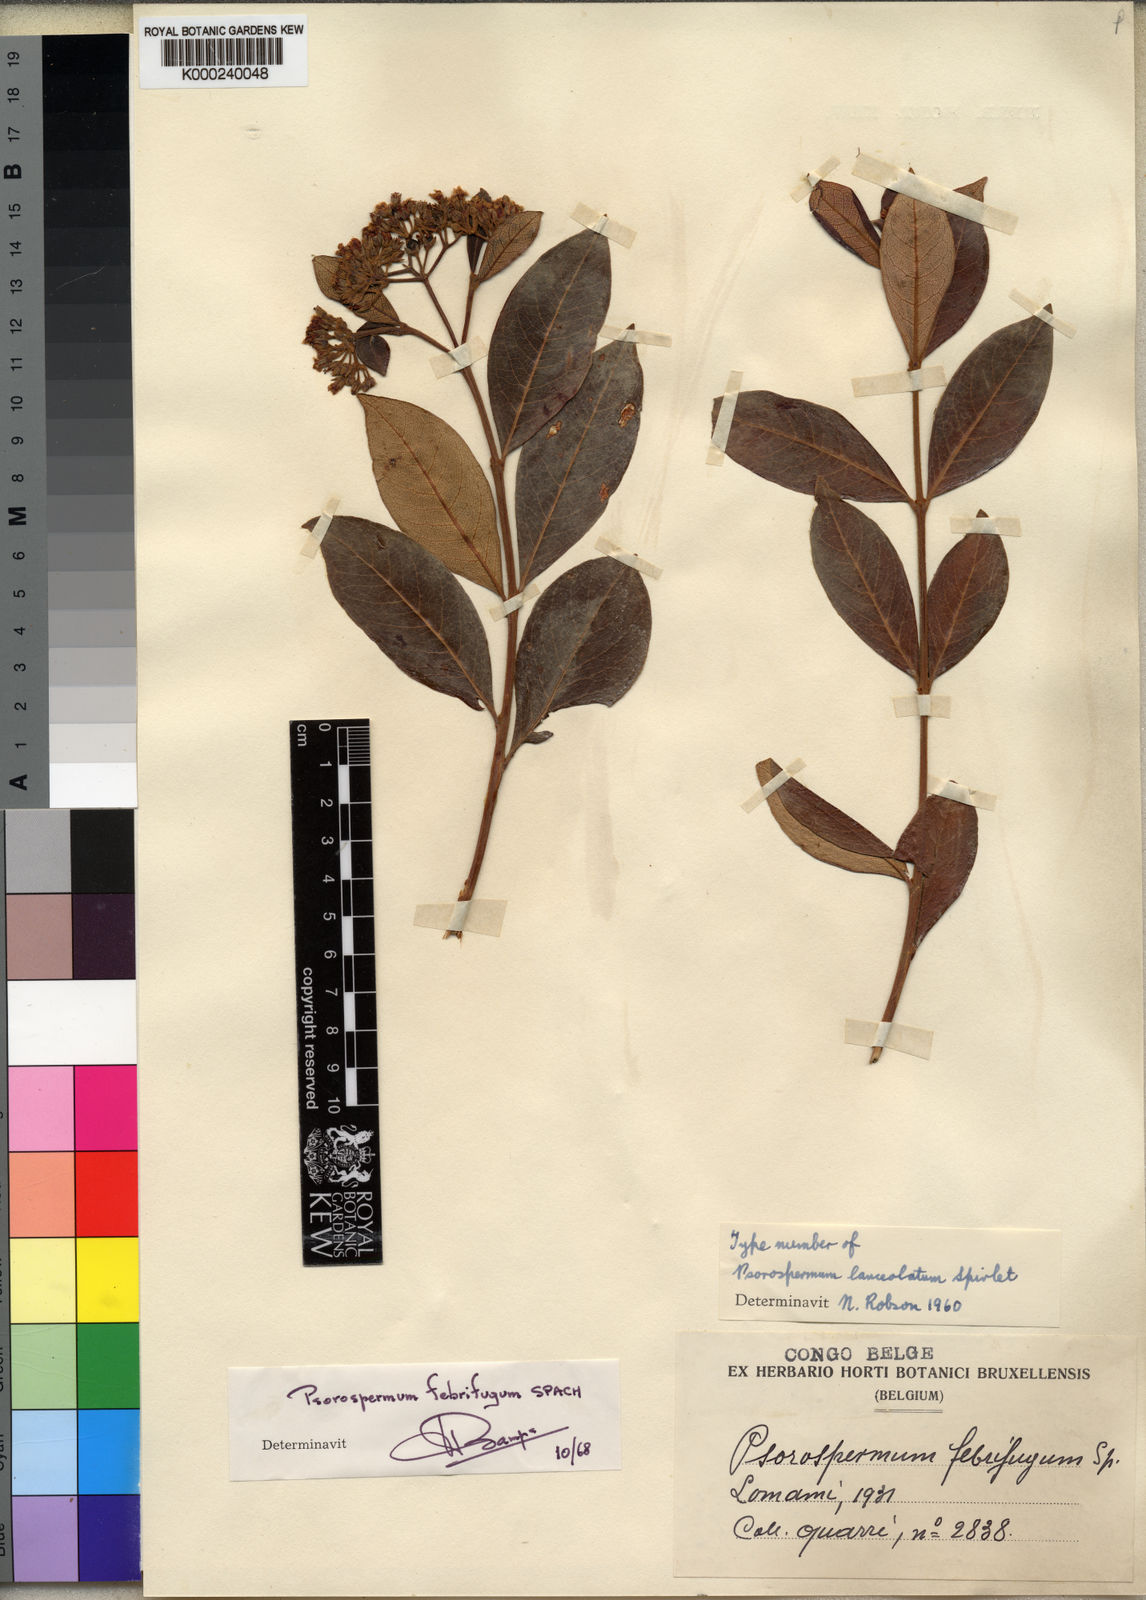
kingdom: Plantae
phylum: Tracheophyta
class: Magnoliopsida
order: Malpighiales
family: Hypericaceae
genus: Psorospermum
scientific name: Psorospermum febrifugum
